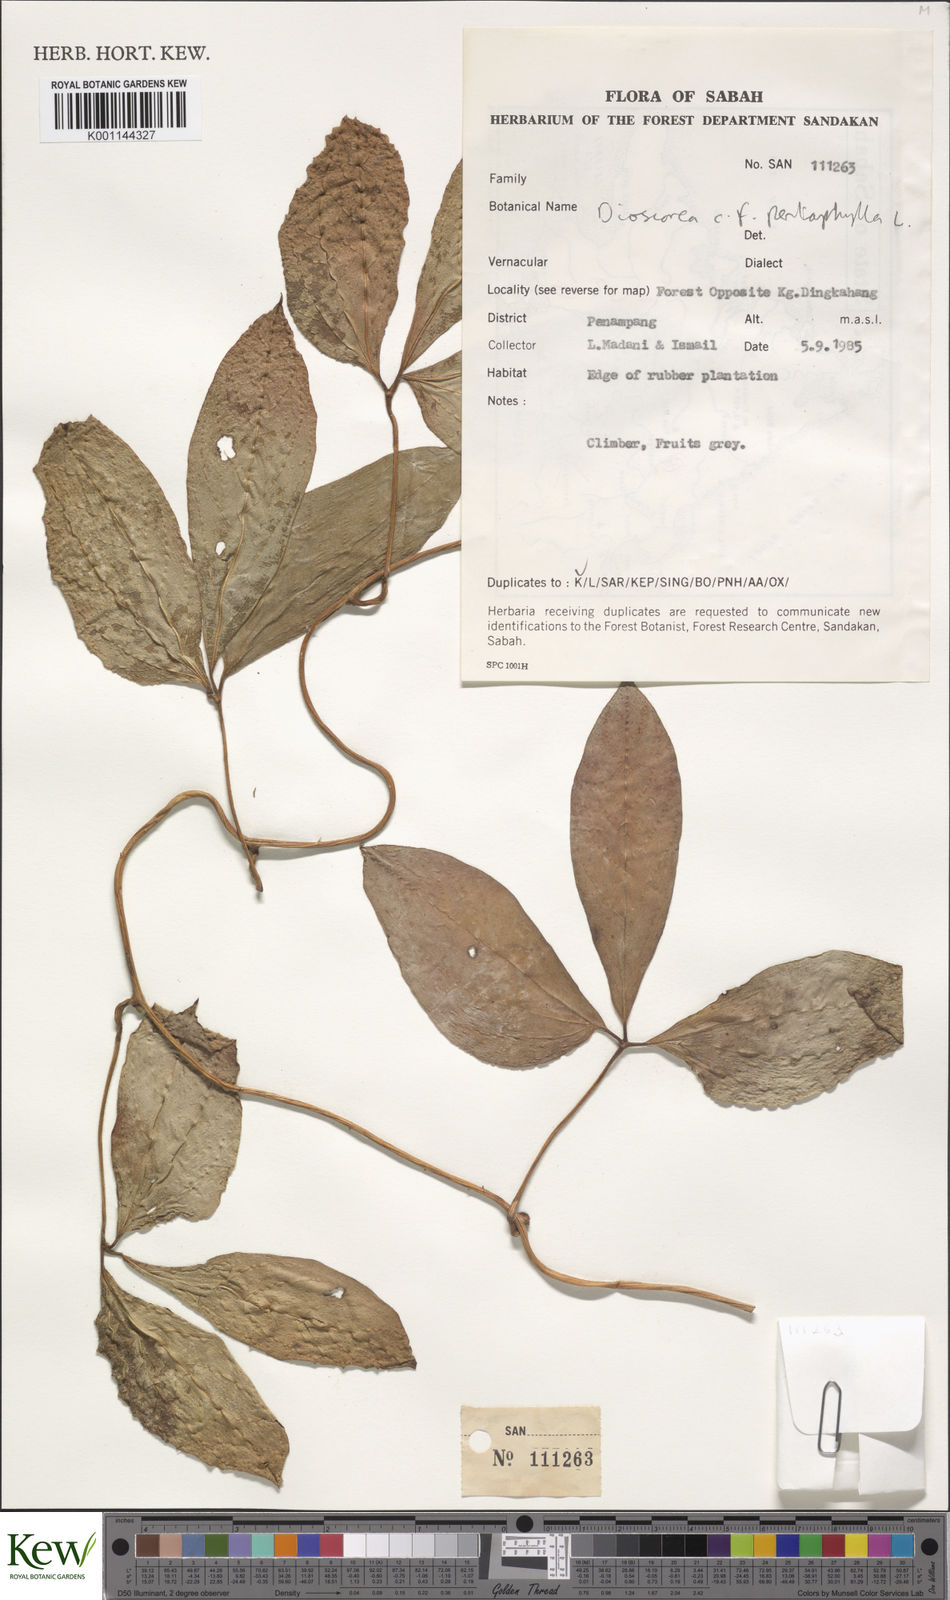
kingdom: Plantae
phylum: Tracheophyta
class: Liliopsida
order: Dioscoreales
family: Dioscoreaceae
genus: Dioscorea
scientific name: Dioscorea pentaphylla
